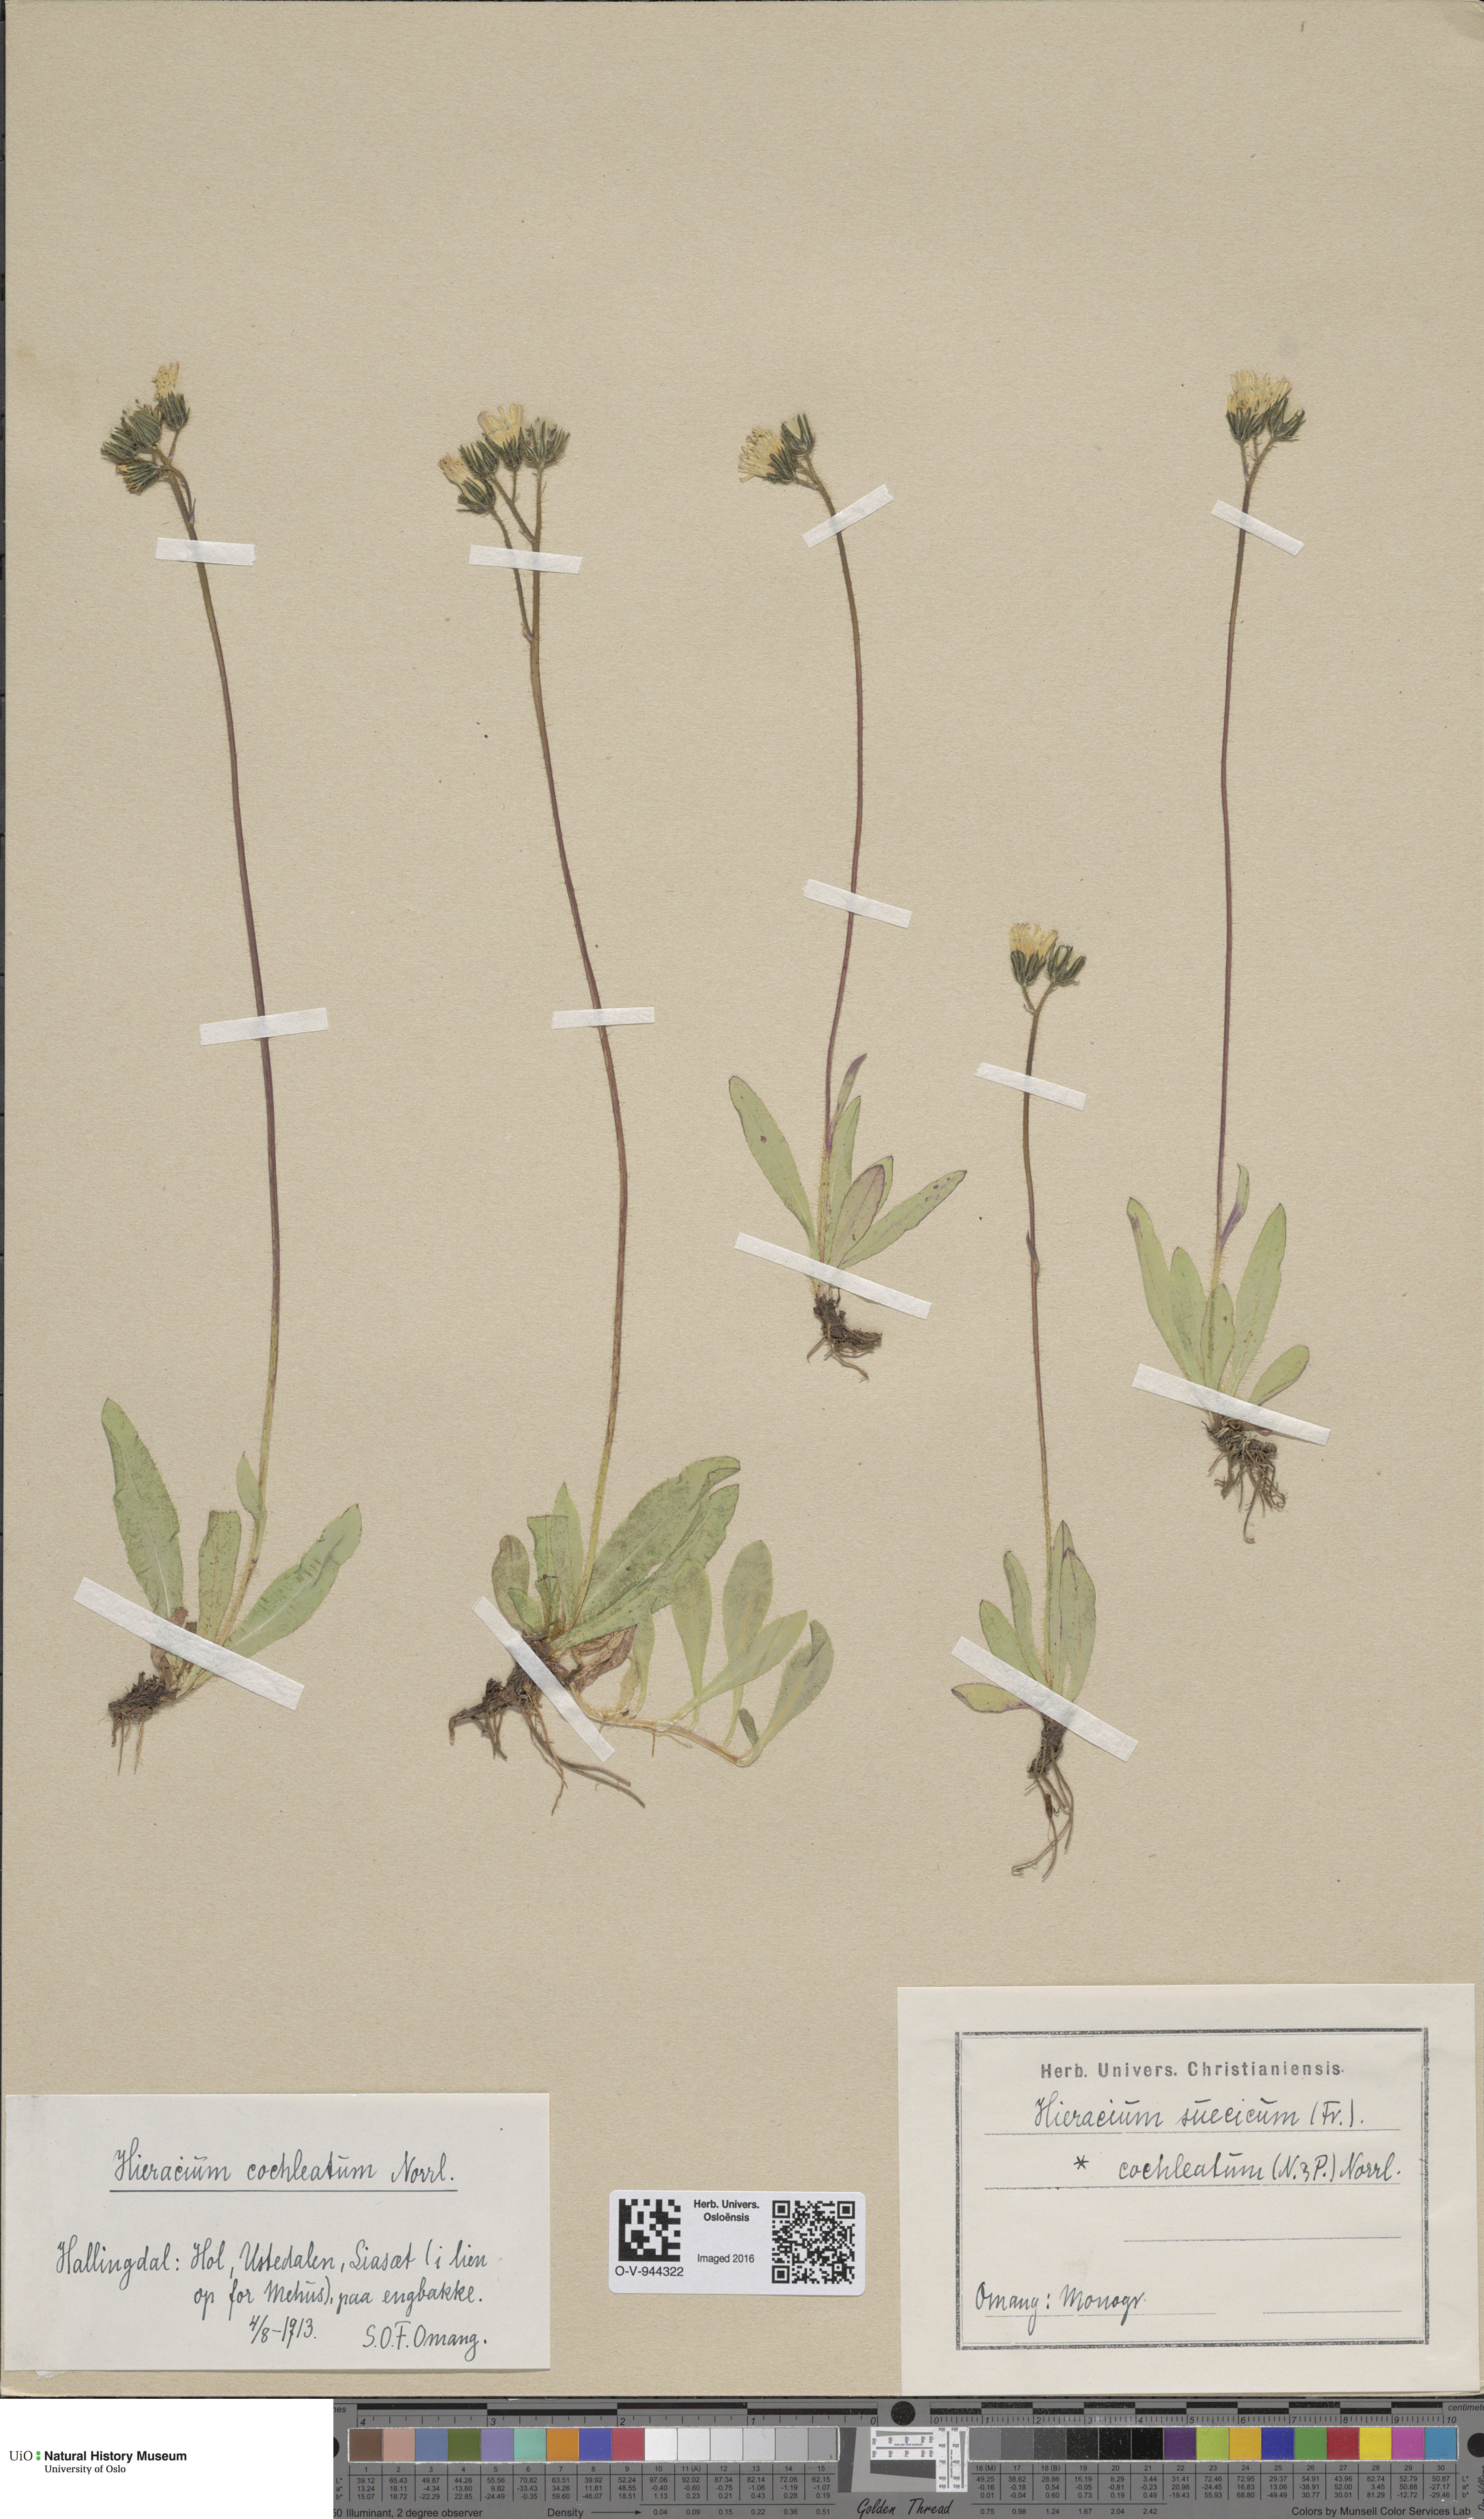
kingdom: Plantae
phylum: Tracheophyta
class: Magnoliopsida
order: Asterales
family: Asteraceae
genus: Pilosella
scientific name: Pilosella dubia
